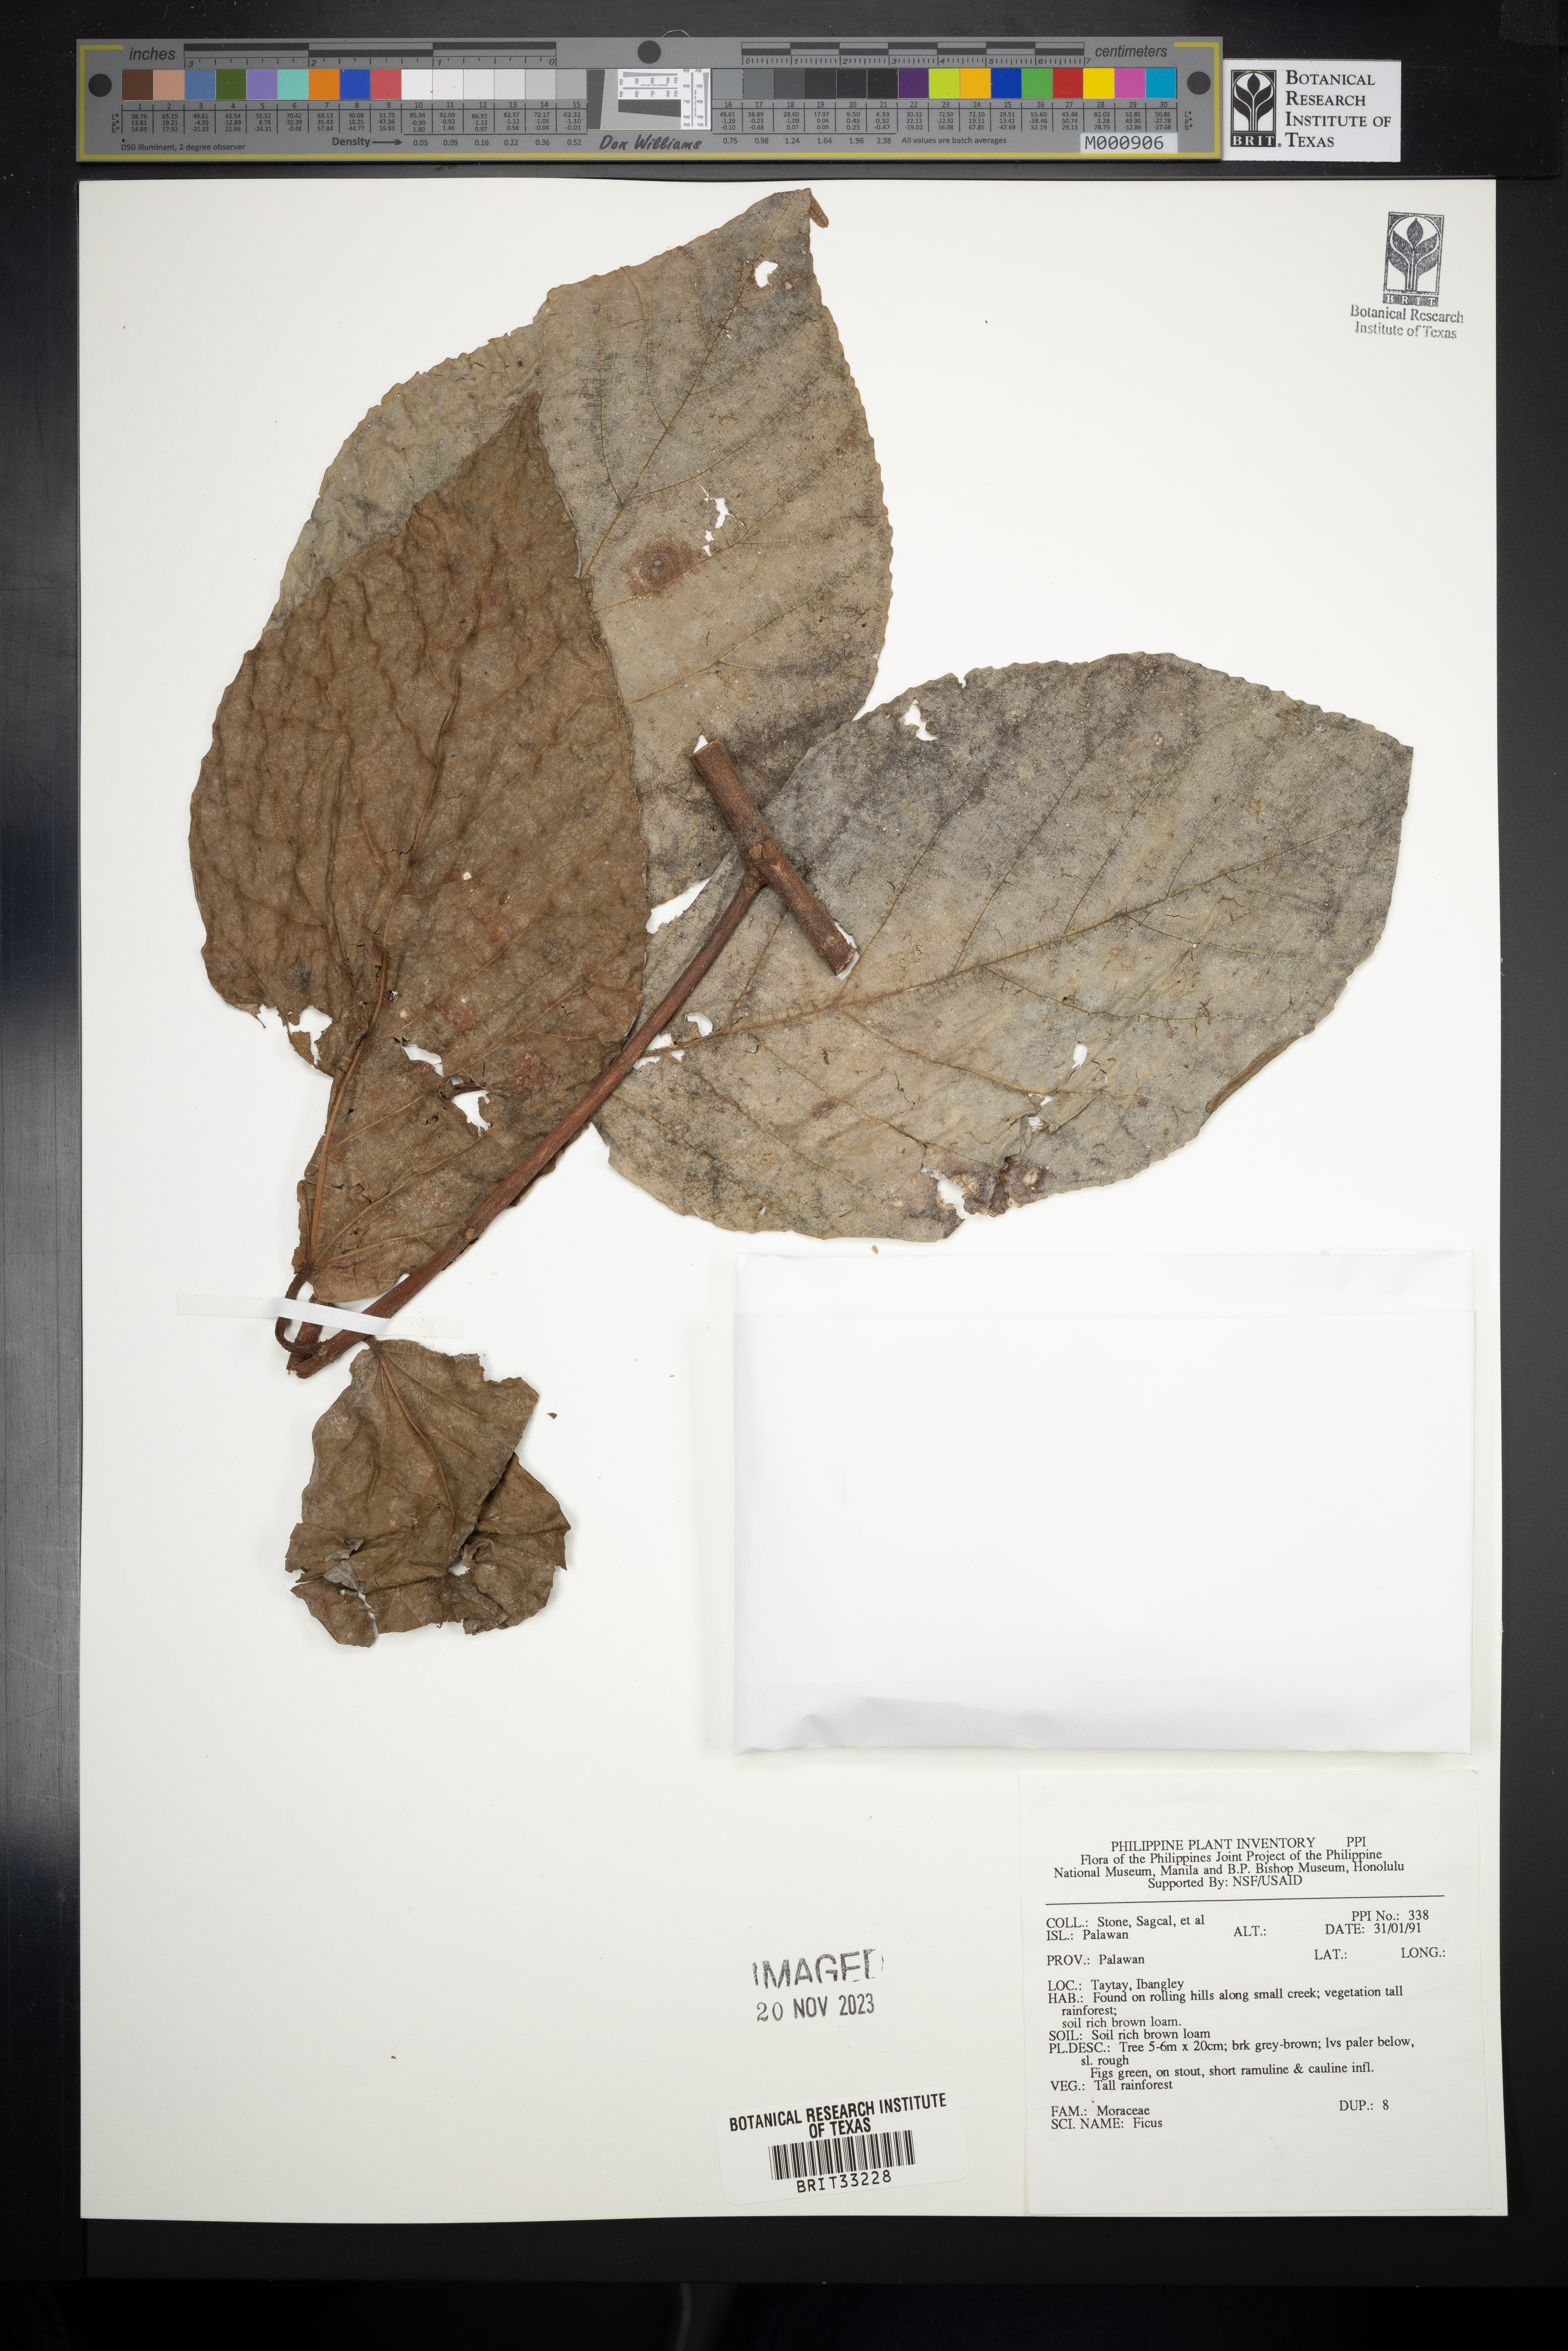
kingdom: Plantae
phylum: Tracheophyta
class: Magnoliopsida
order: Rosales
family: Moraceae
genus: Ficus
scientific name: Ficus
